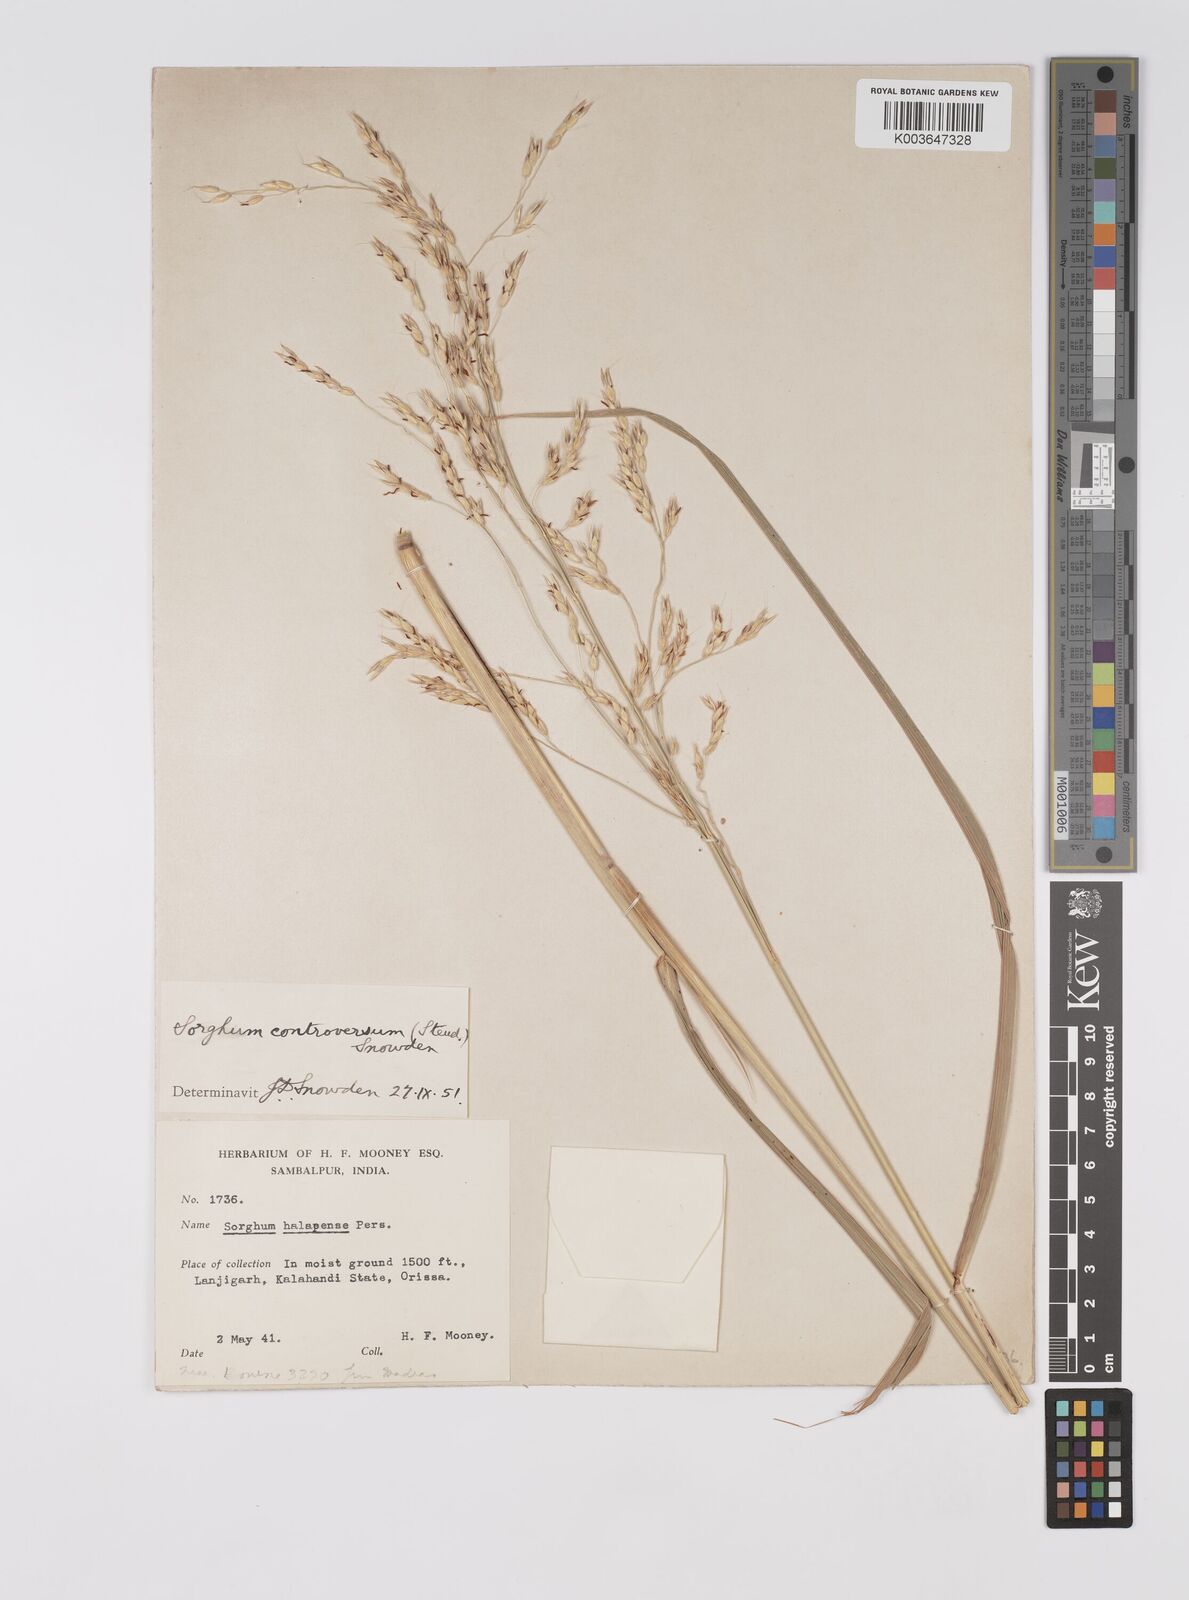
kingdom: Plantae
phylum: Tracheophyta
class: Liliopsida
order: Poales
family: Poaceae
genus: Sorghum
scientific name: Sorghum controversum
